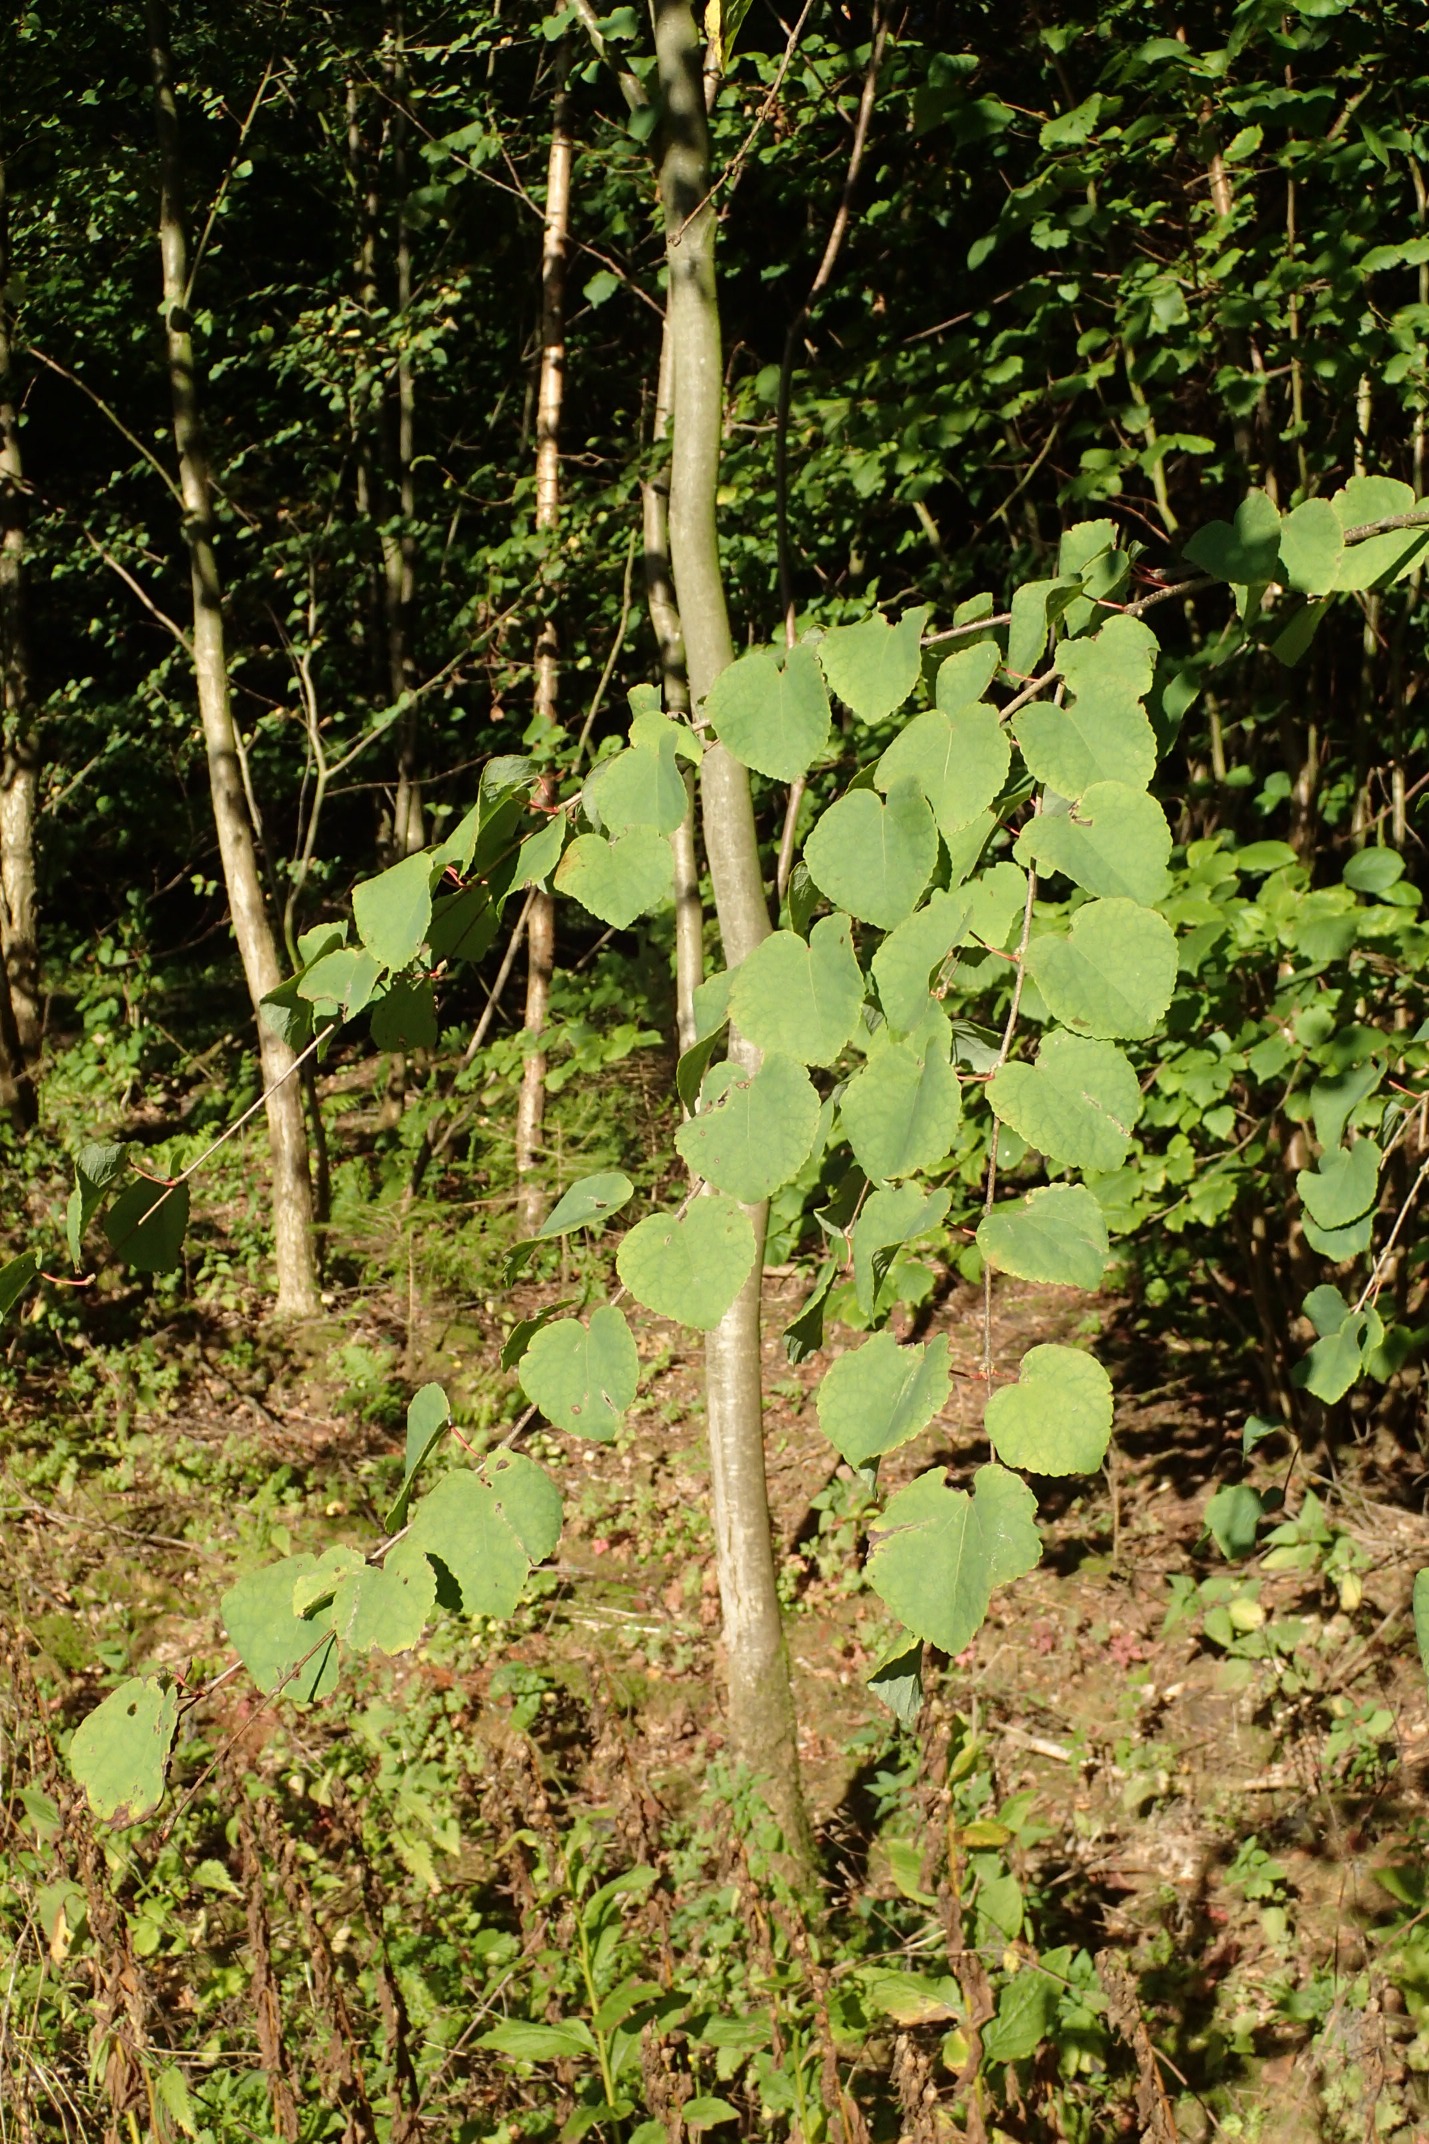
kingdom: Plantae
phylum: Tracheophyta
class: Magnoliopsida
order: Saxifragales
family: Cercidiphyllaceae
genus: Cercidiphyllum
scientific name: Cercidiphyllum japonicum
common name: Hjertetræ
